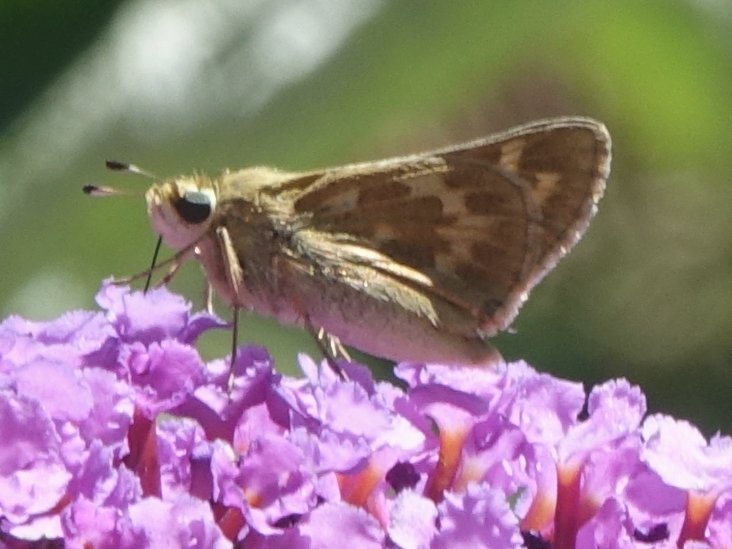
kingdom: Animalia
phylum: Arthropoda
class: Insecta
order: Lepidoptera
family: Hesperiidae
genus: Atalopedes
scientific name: Atalopedes campestris
